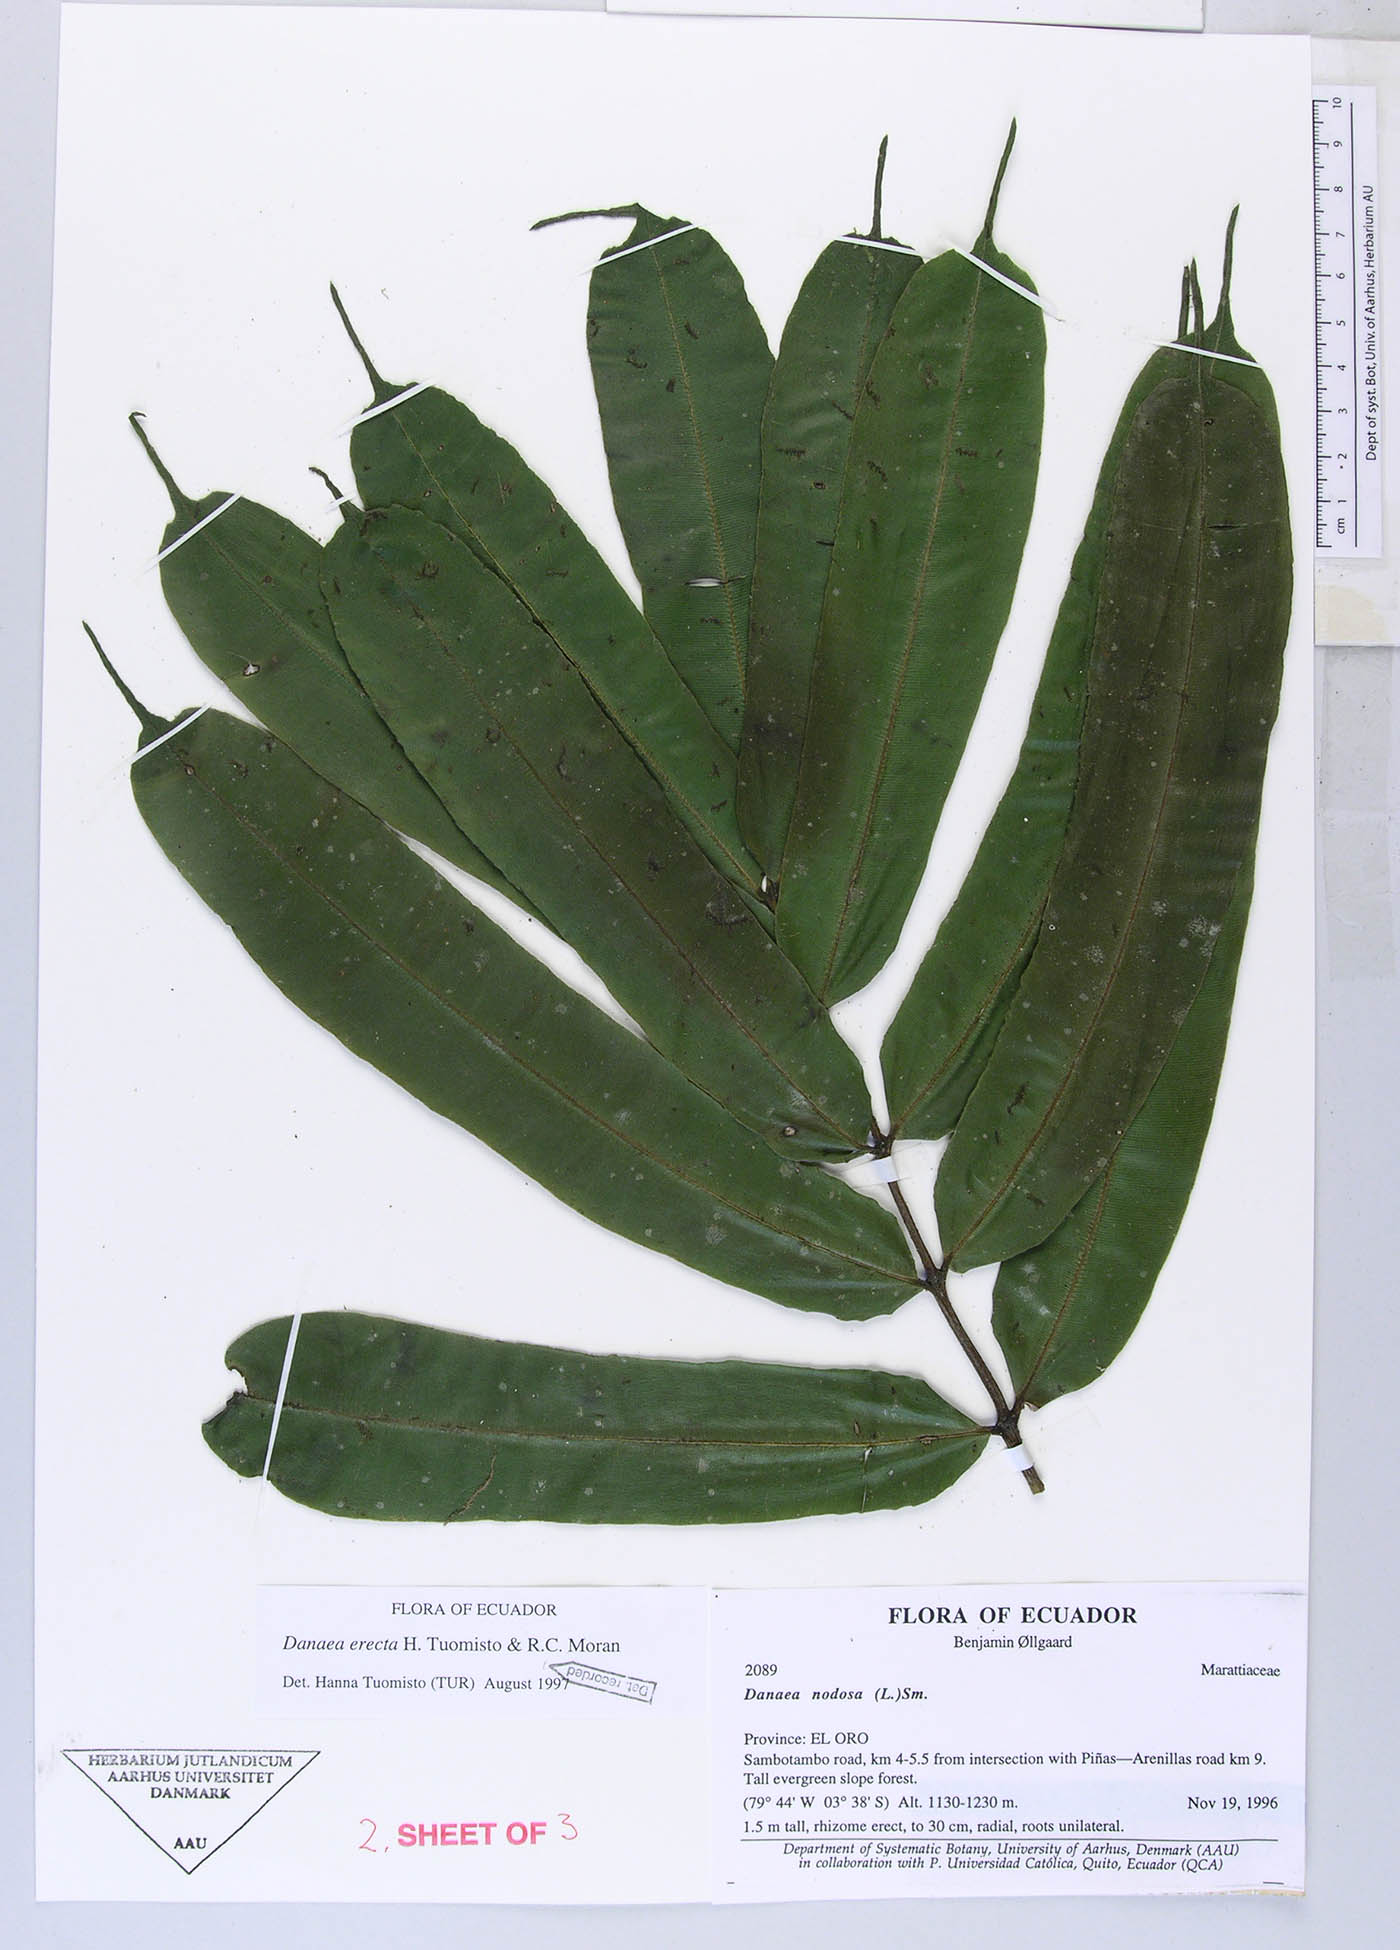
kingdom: Plantae
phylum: Tracheophyta
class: Polypodiopsida
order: Marattiales
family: Marattiaceae
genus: Danaea
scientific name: Danaea nodosa
